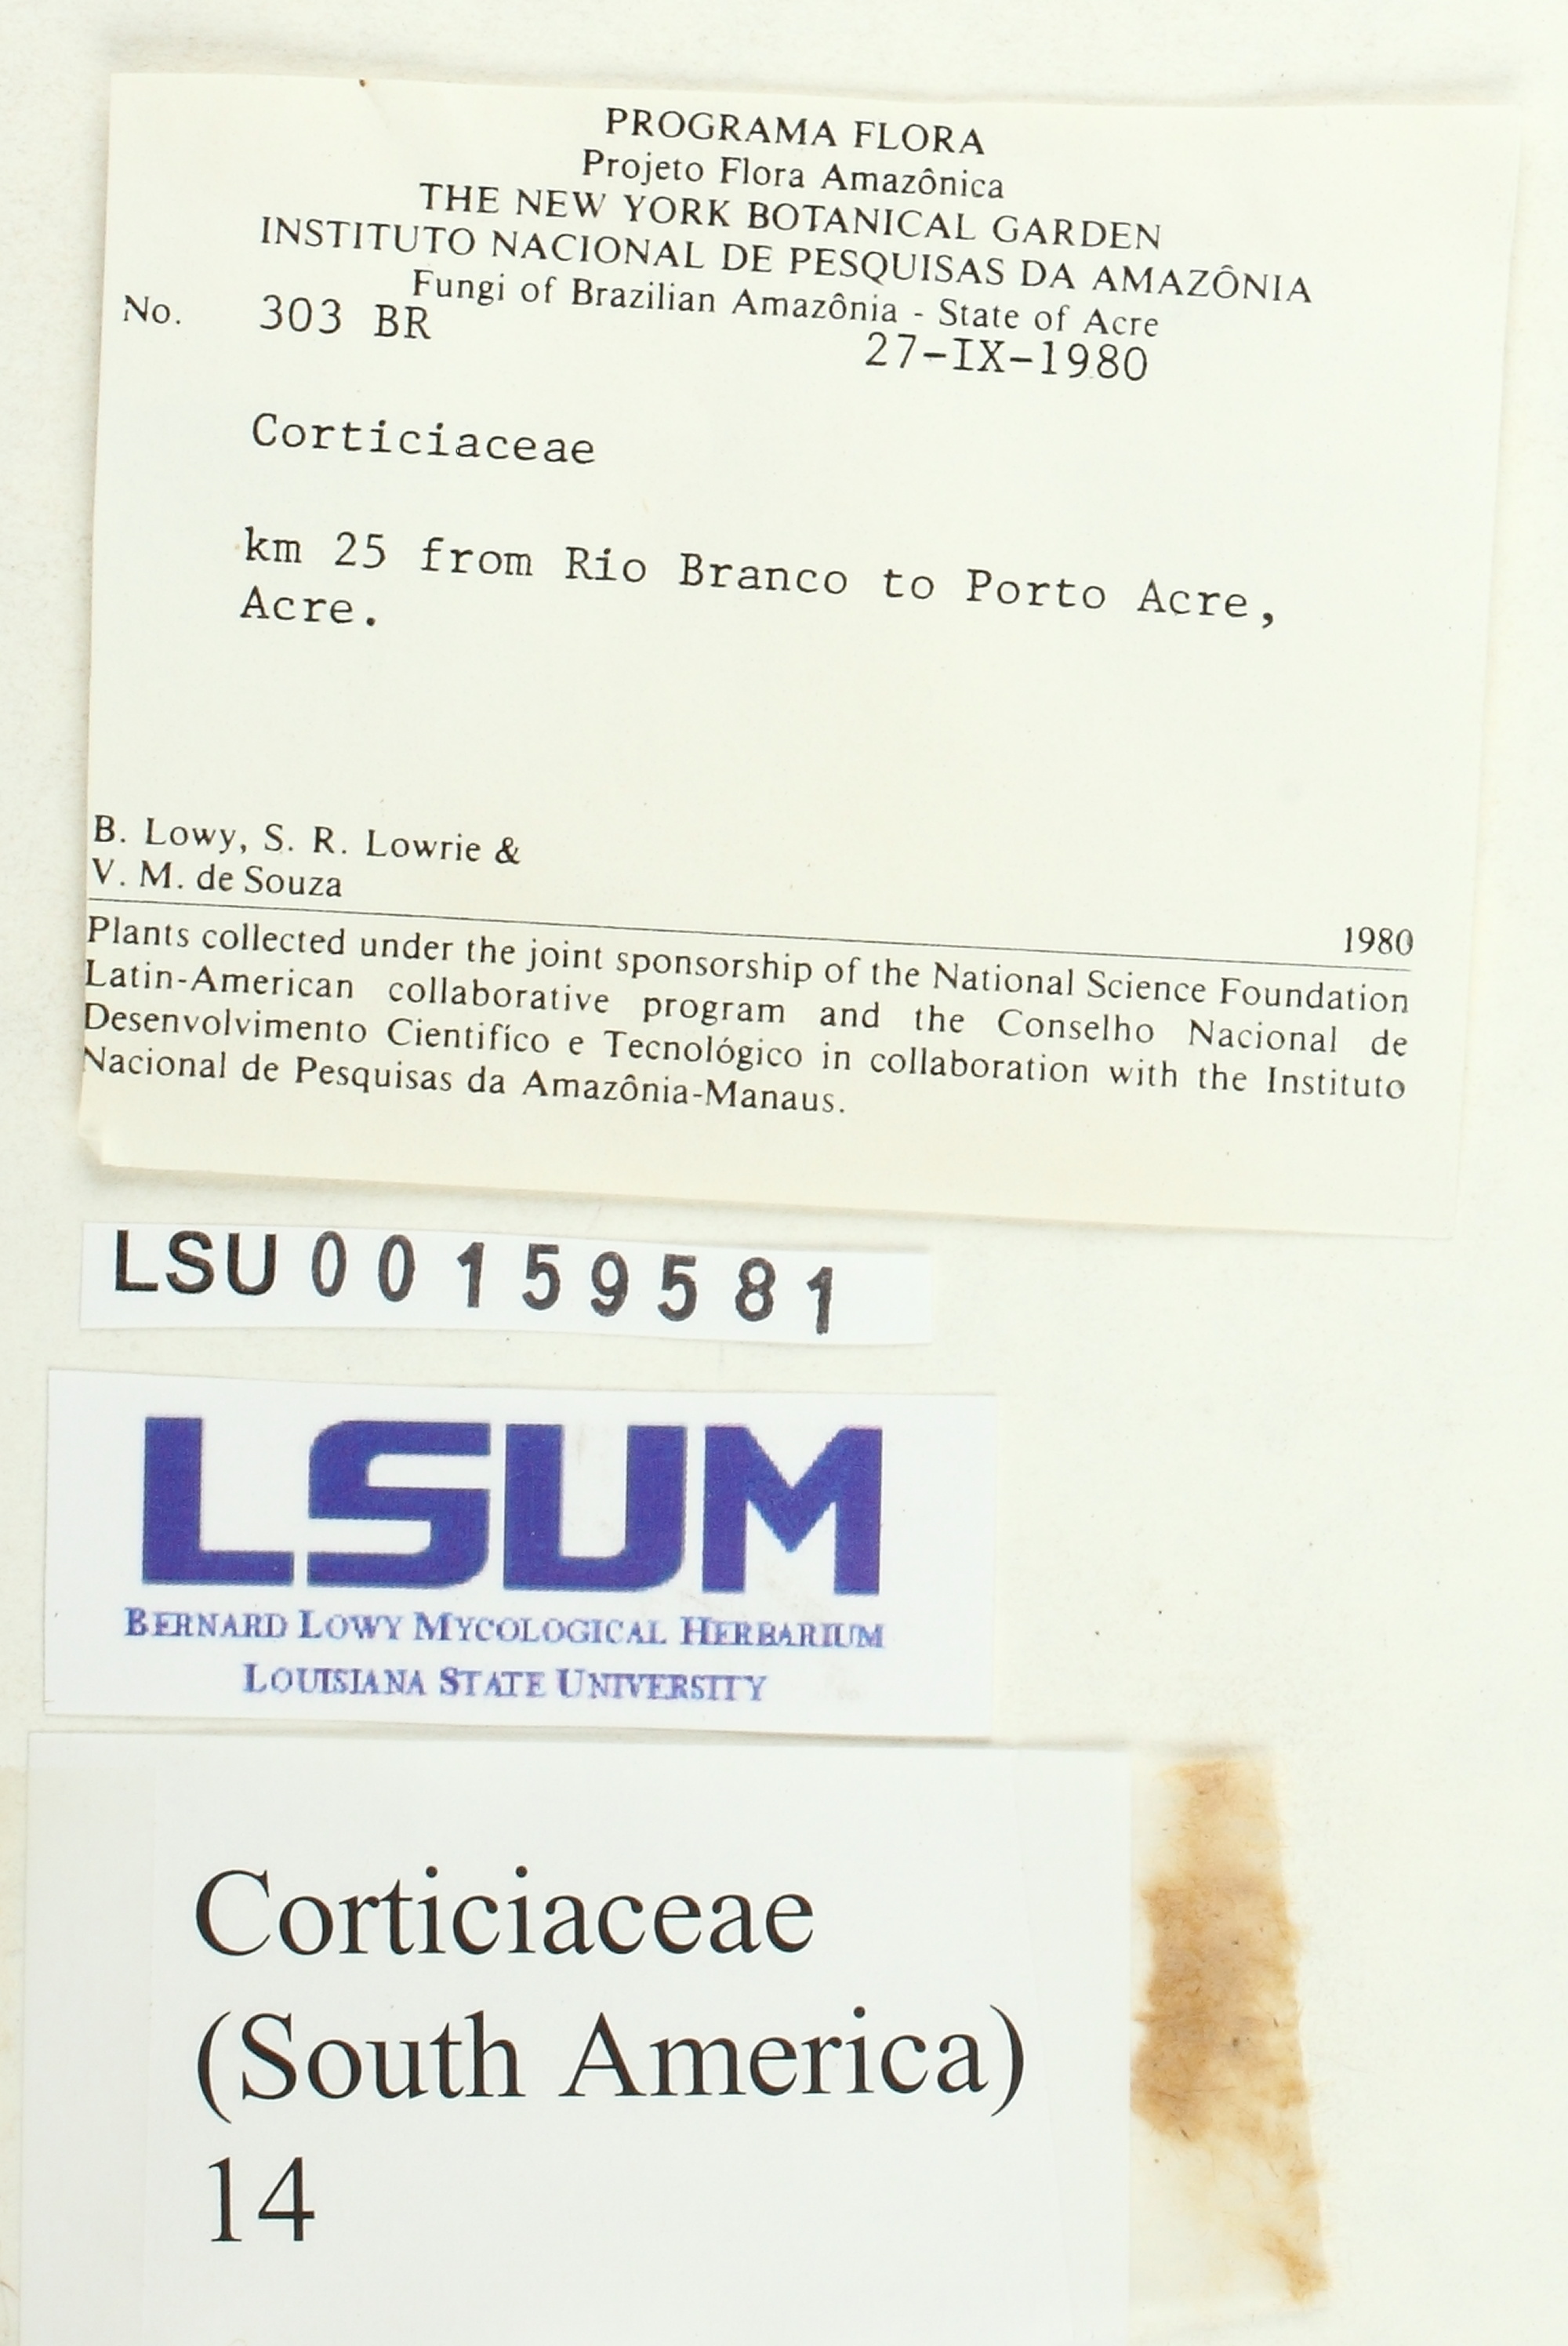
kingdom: Fungi
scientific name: Fungi
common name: Fungi
